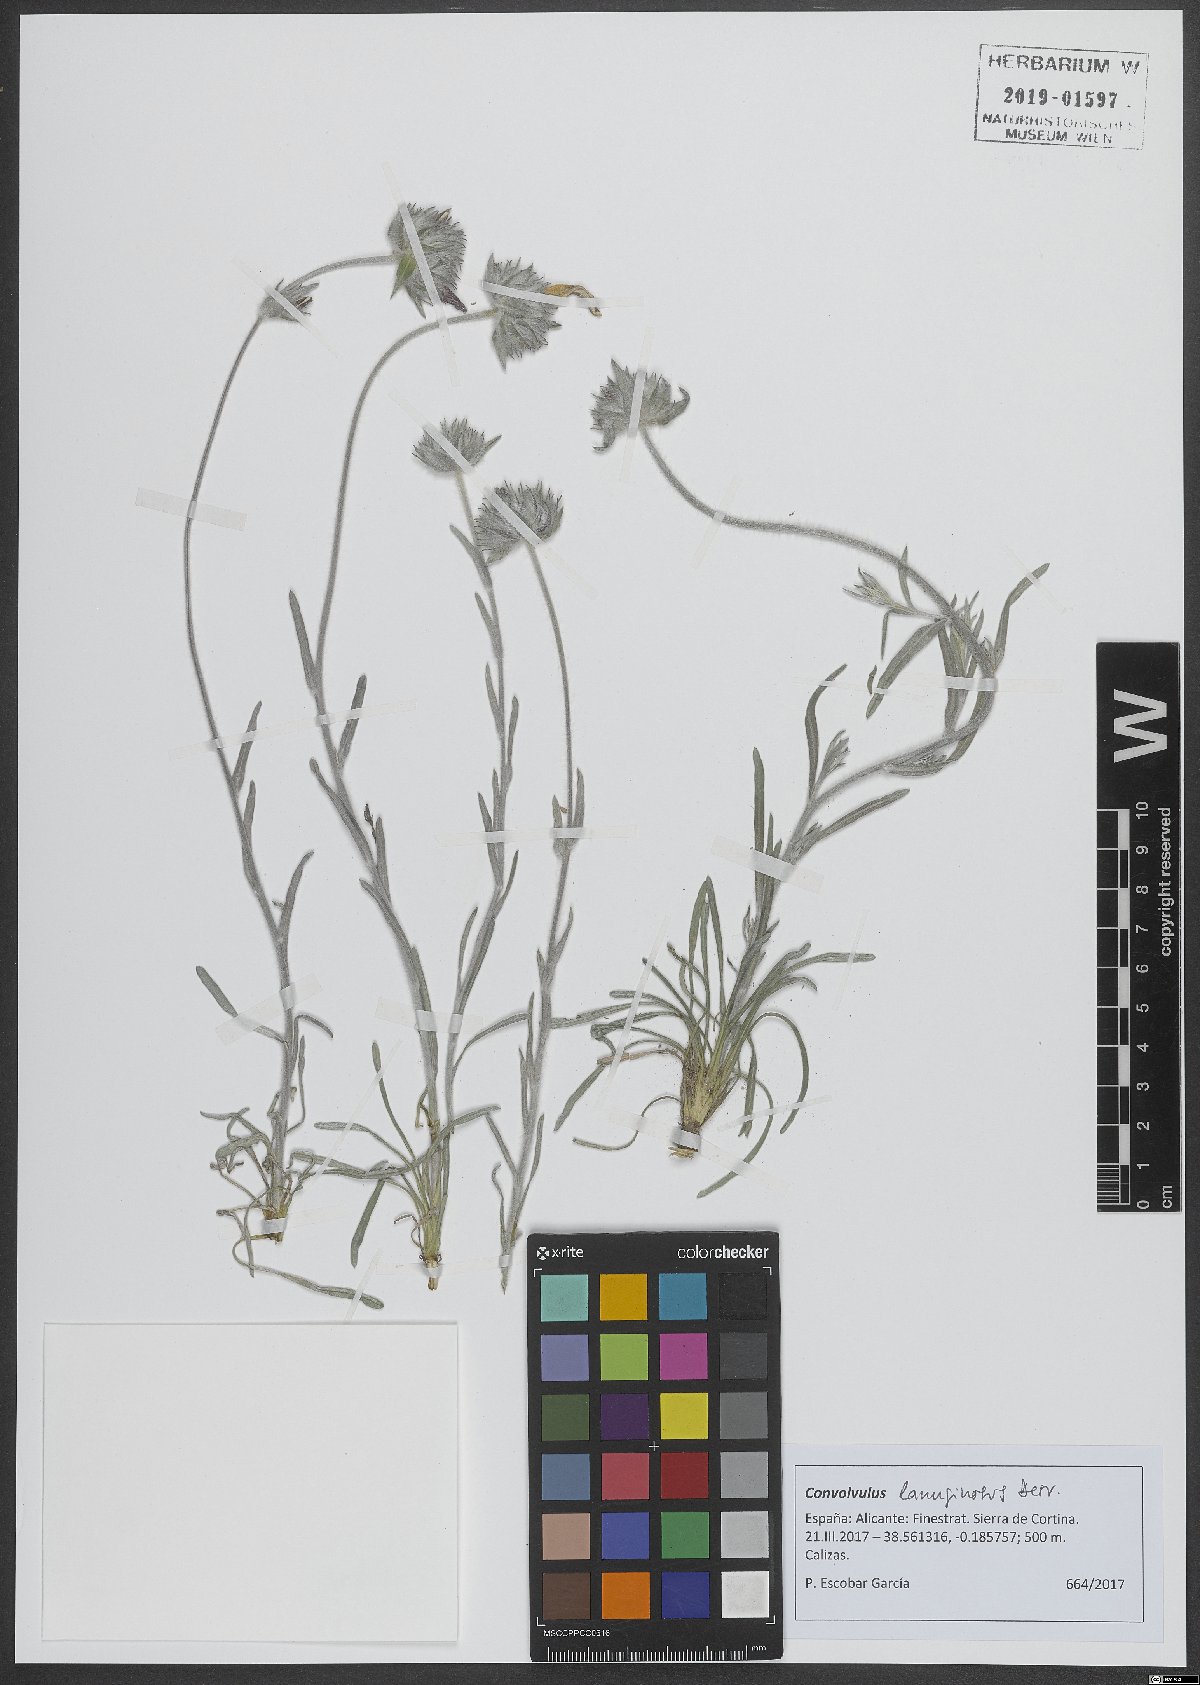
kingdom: Plantae
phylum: Tracheophyta
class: Magnoliopsida
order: Solanales
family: Convolvulaceae
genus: Convolvulus
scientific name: Convolvulus lanuginosus
